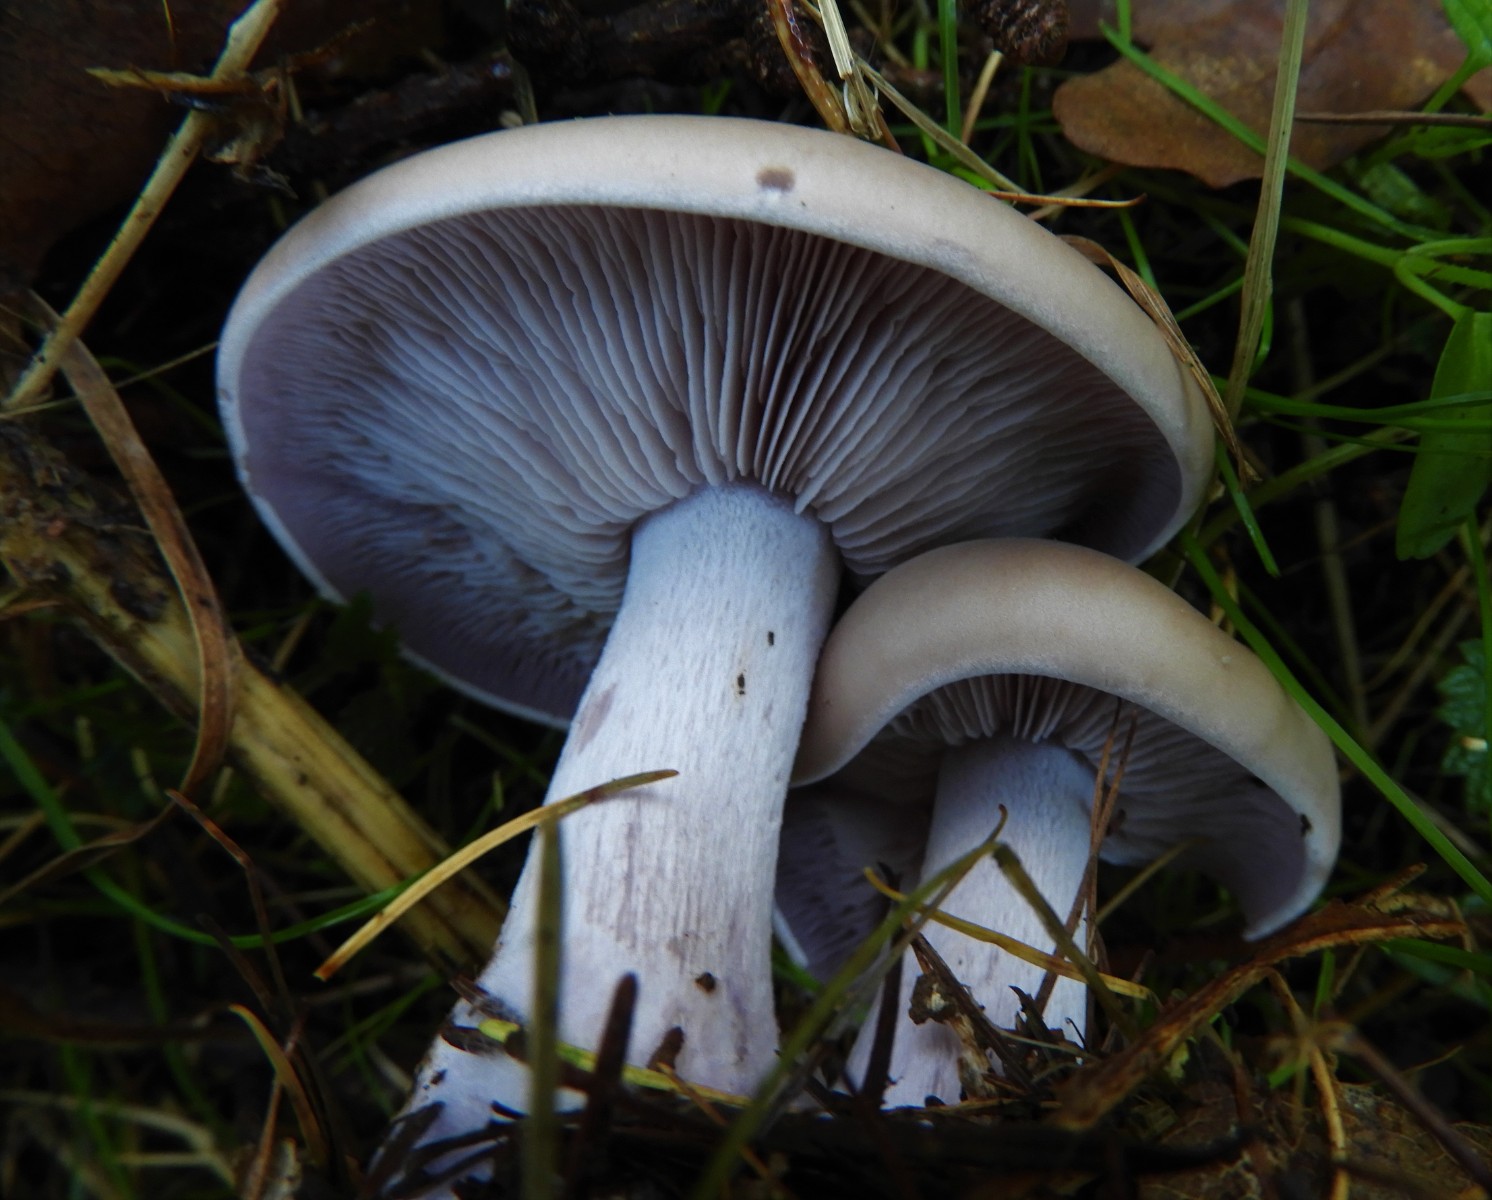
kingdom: Fungi
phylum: Basidiomycota
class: Agaricomycetes
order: Agaricales
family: Tricholomataceae
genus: Lepista
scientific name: Lepista nuda
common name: violet hekseringshat
